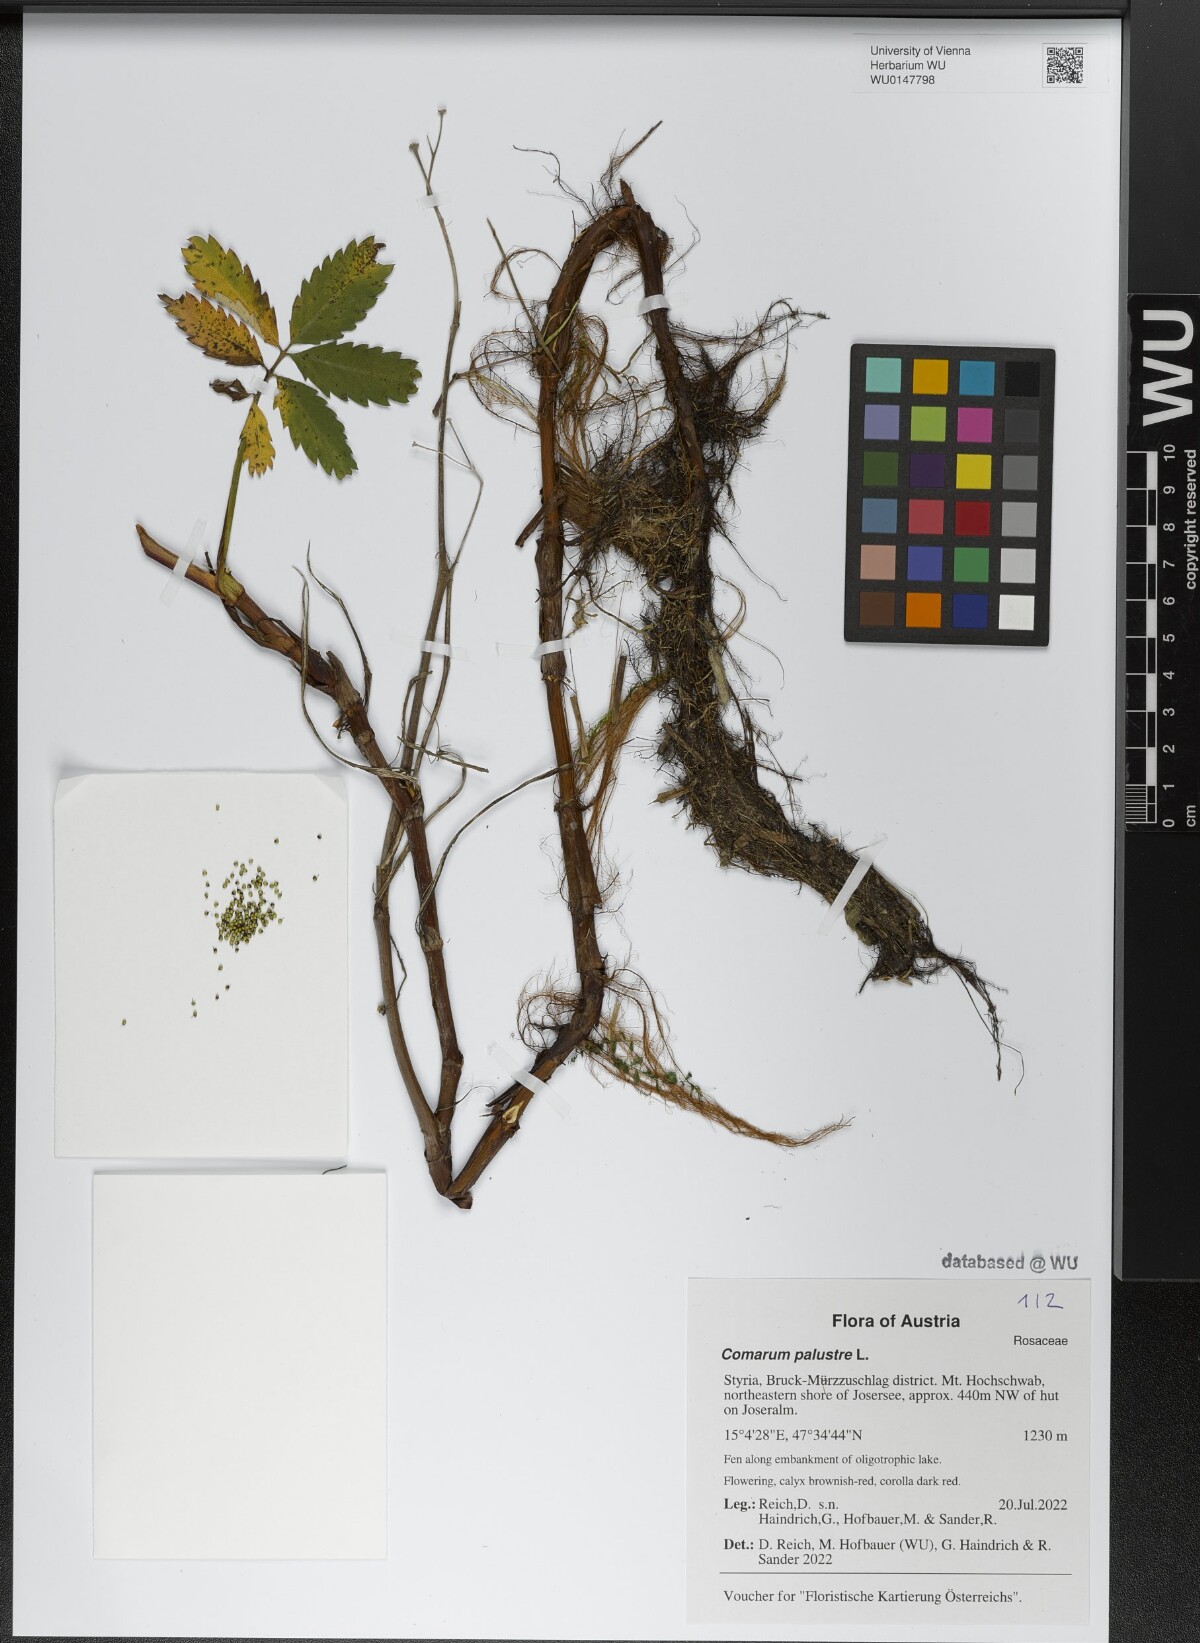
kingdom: Plantae
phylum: Tracheophyta
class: Magnoliopsida
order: Rosales
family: Rosaceae
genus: Comarum
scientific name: Comarum palustre
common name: Marsh cinquefoil
